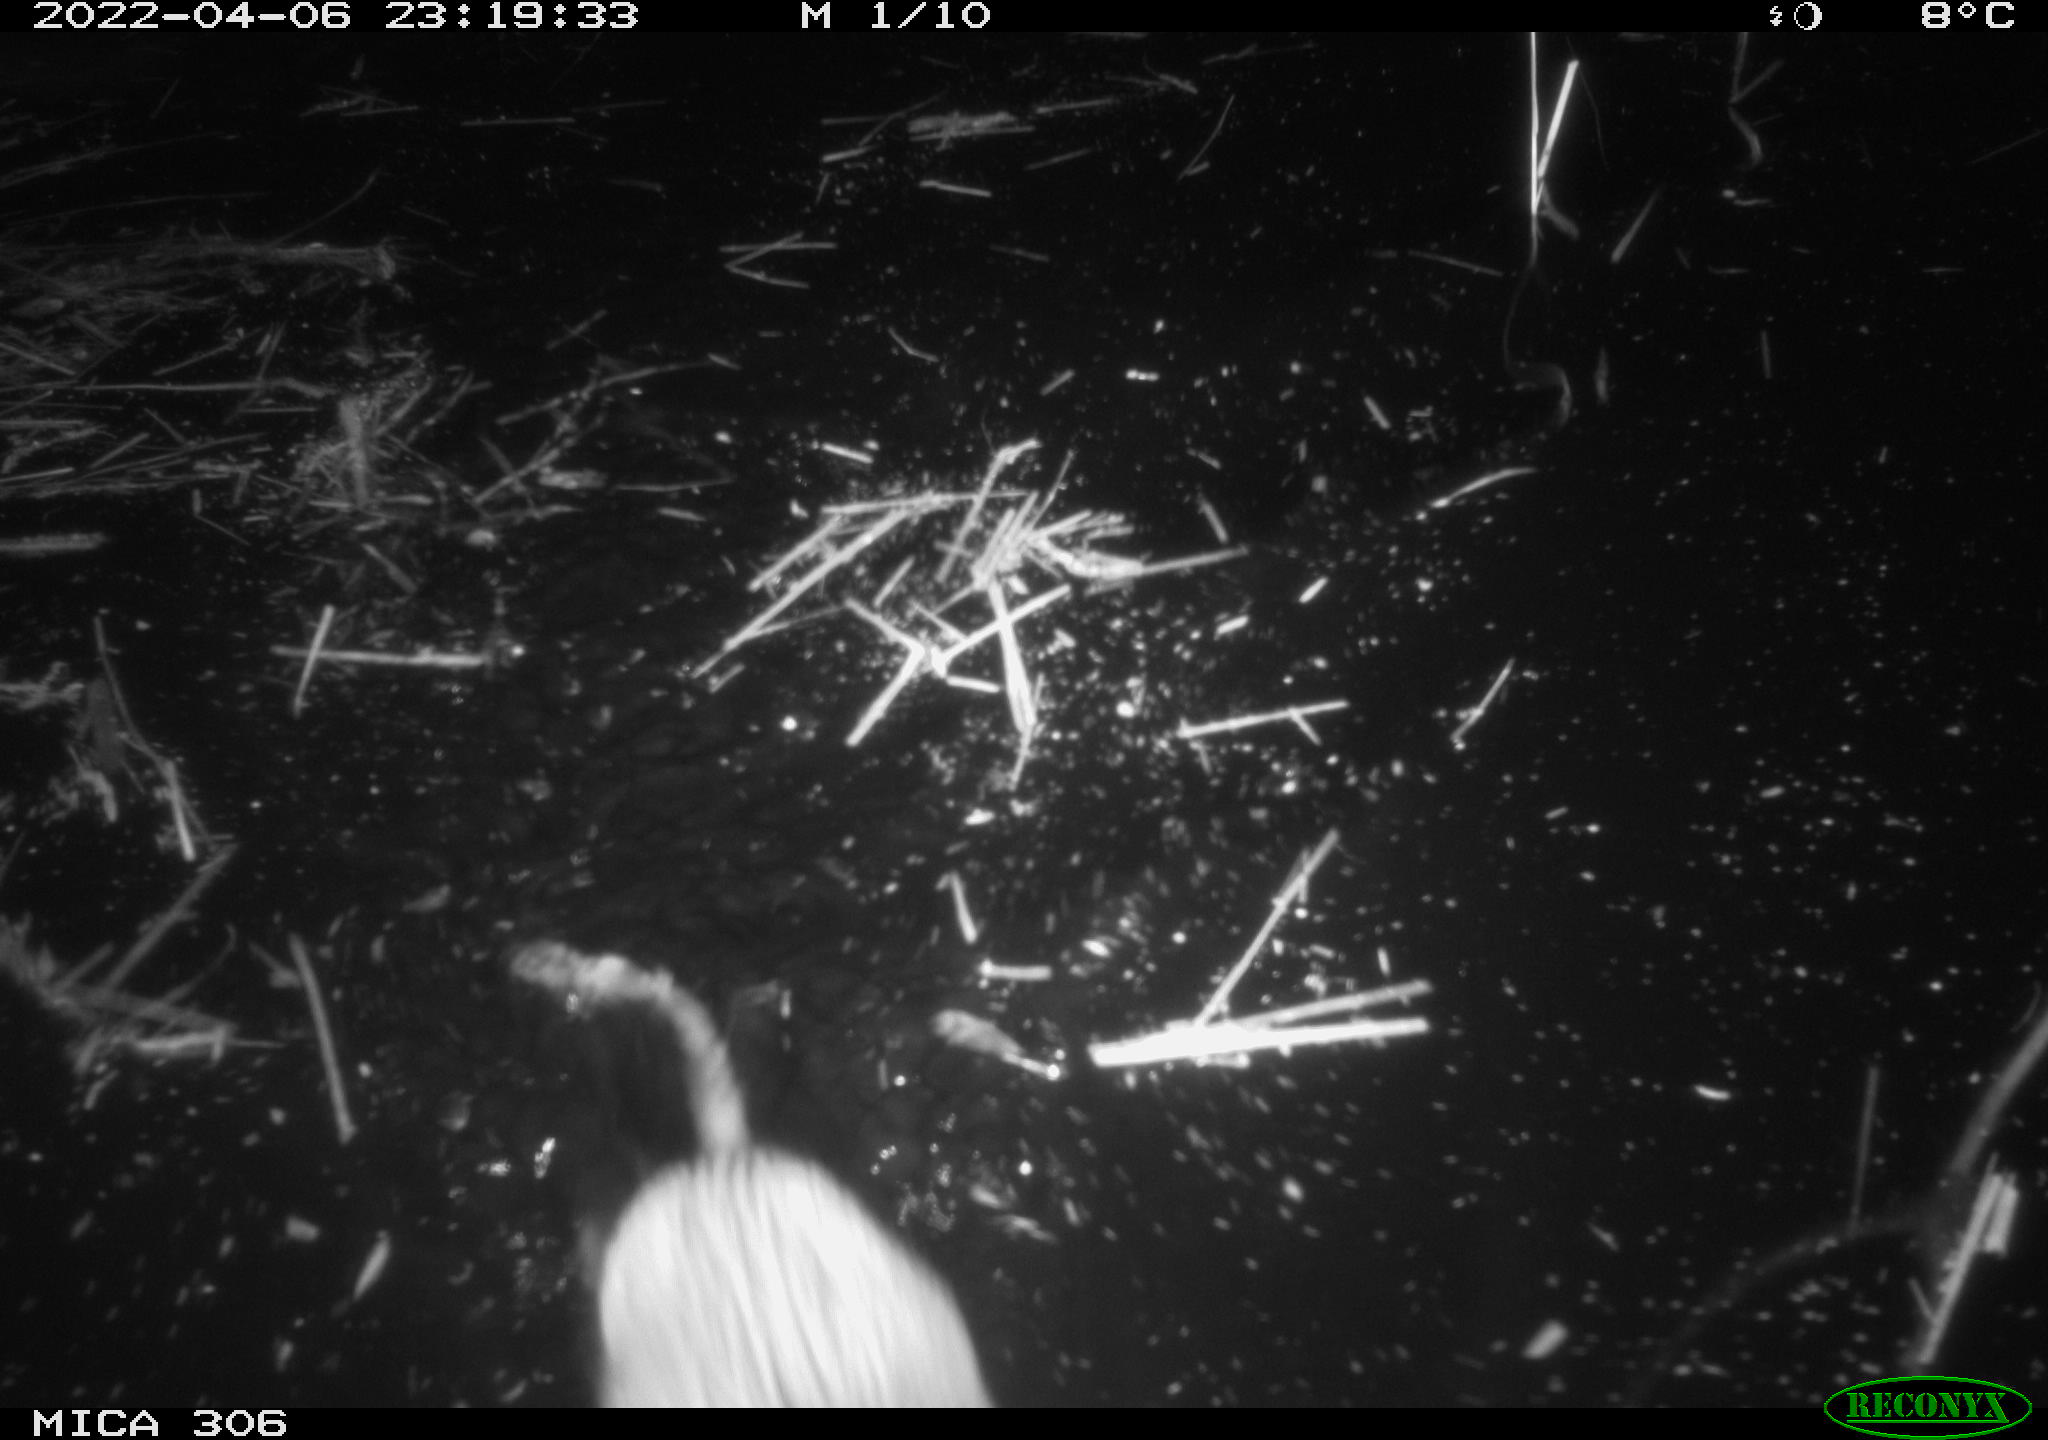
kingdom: Animalia
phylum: Chordata
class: Mammalia
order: Rodentia
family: Cricetidae
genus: Ondatra
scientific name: Ondatra zibethicus
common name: Muskrat
